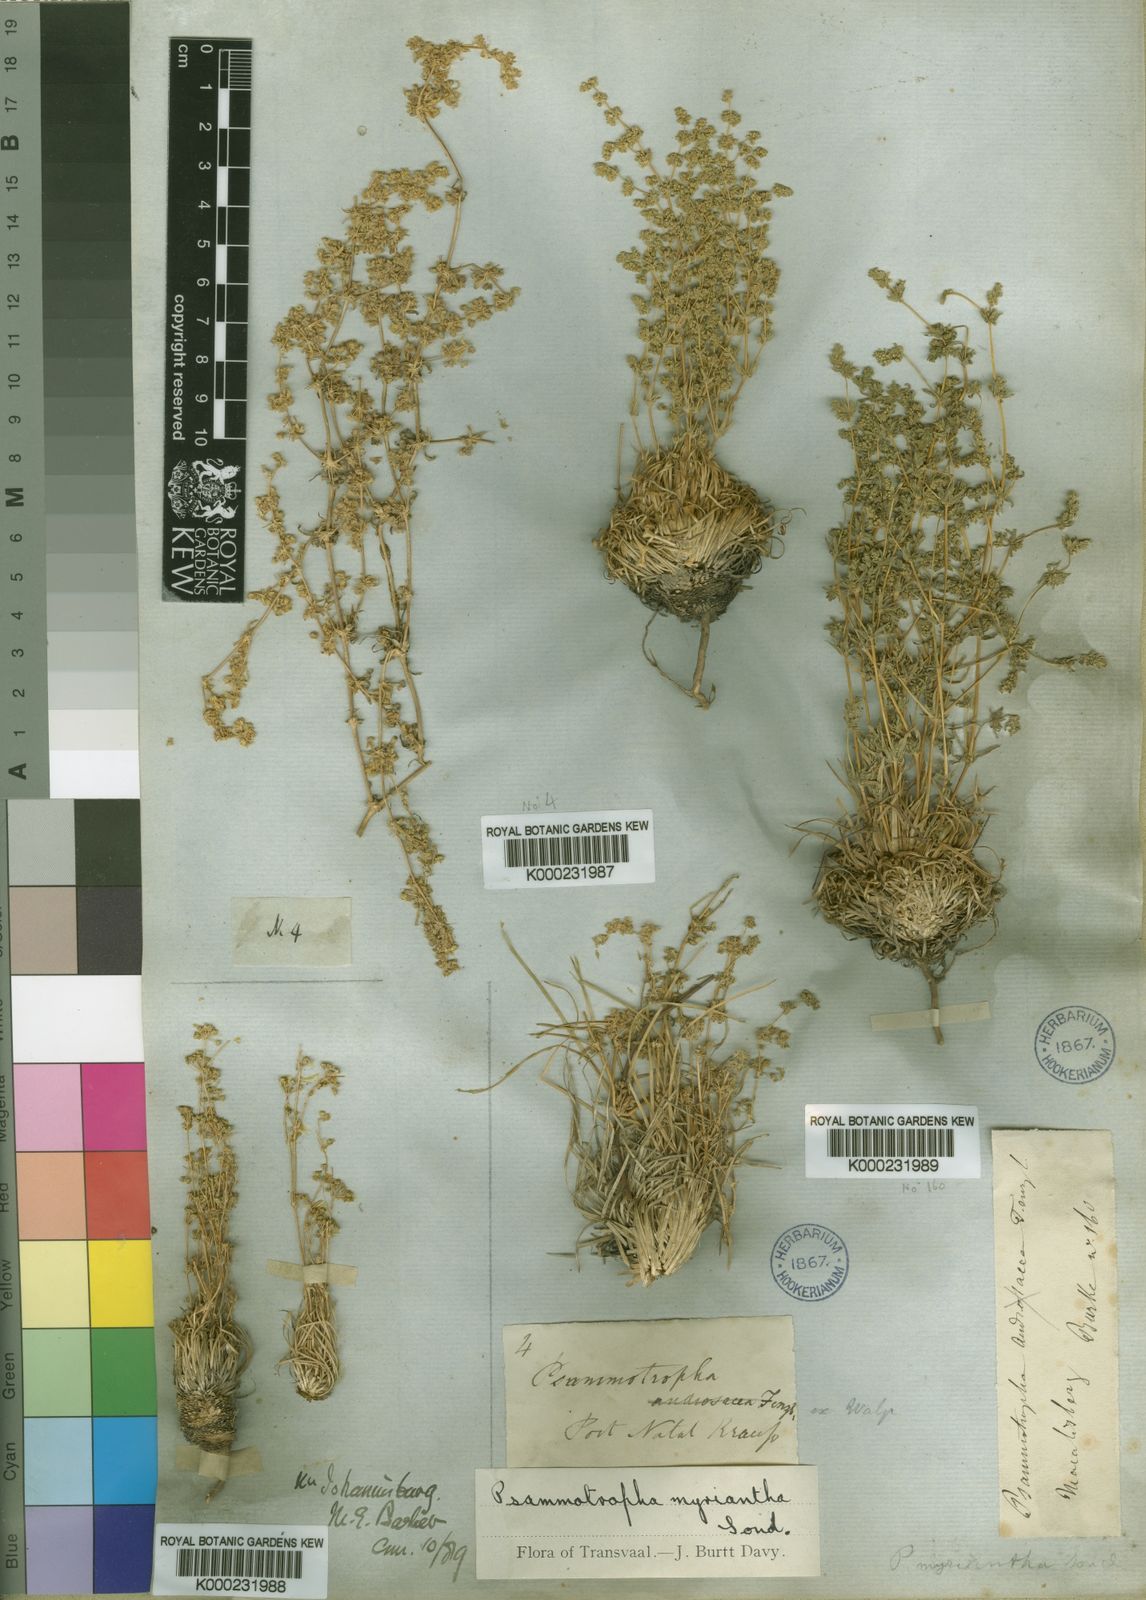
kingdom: Plantae
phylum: Tracheophyta
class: Magnoliopsida
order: Caryophyllales
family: Molluginaceae
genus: Psammotropha
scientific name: Psammotropha myriantha
